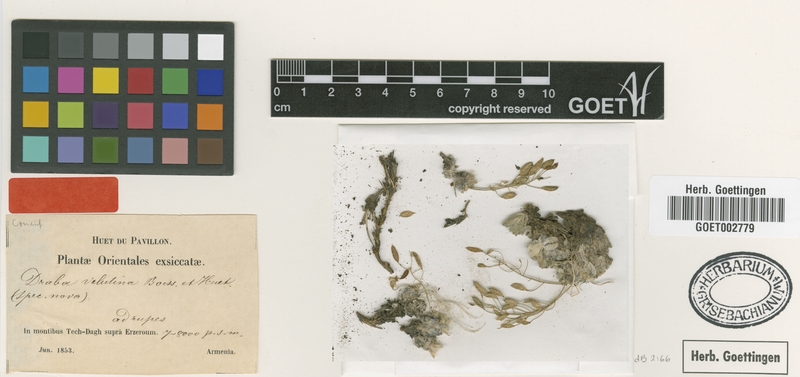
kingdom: Plantae
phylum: Tracheophyta
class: Magnoliopsida
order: Brassicales
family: Brassicaceae
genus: Draba
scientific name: Draba magellanica
